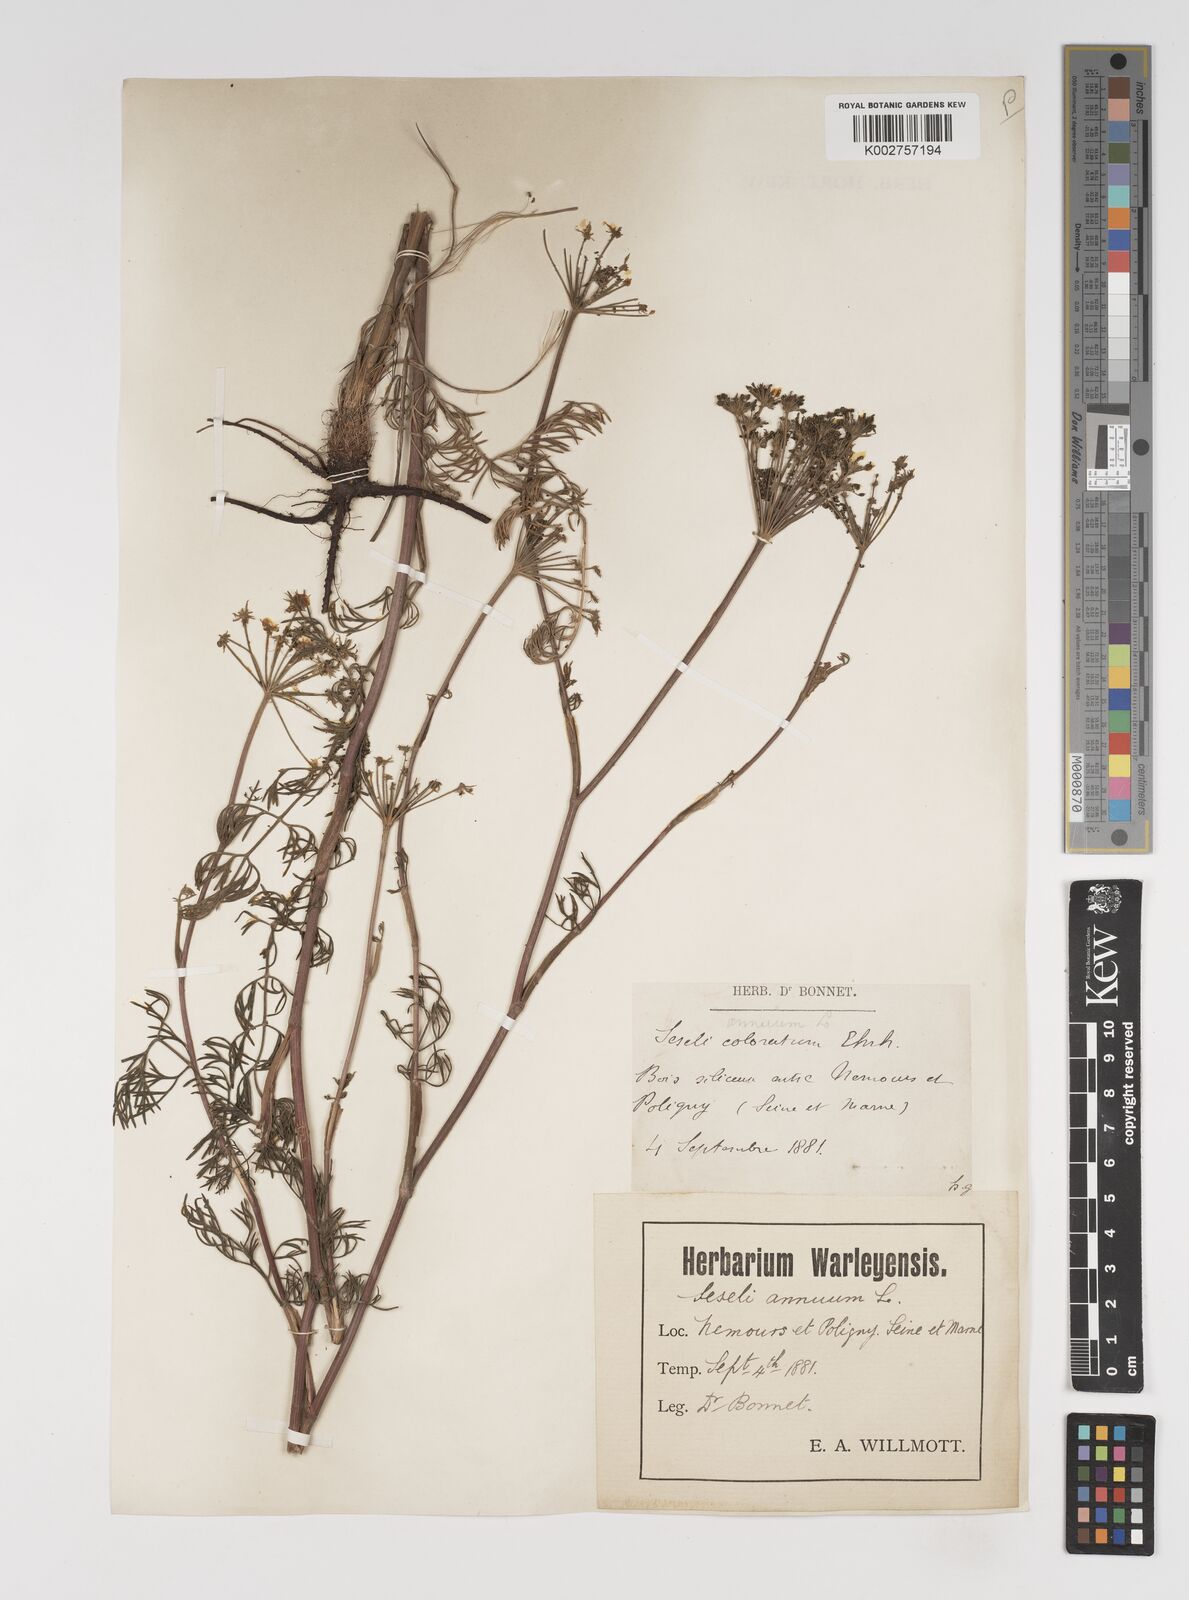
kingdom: Plantae
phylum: Tracheophyta
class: Magnoliopsida
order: Apiales
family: Apiaceae
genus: Seseli
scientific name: Seseli annuum
